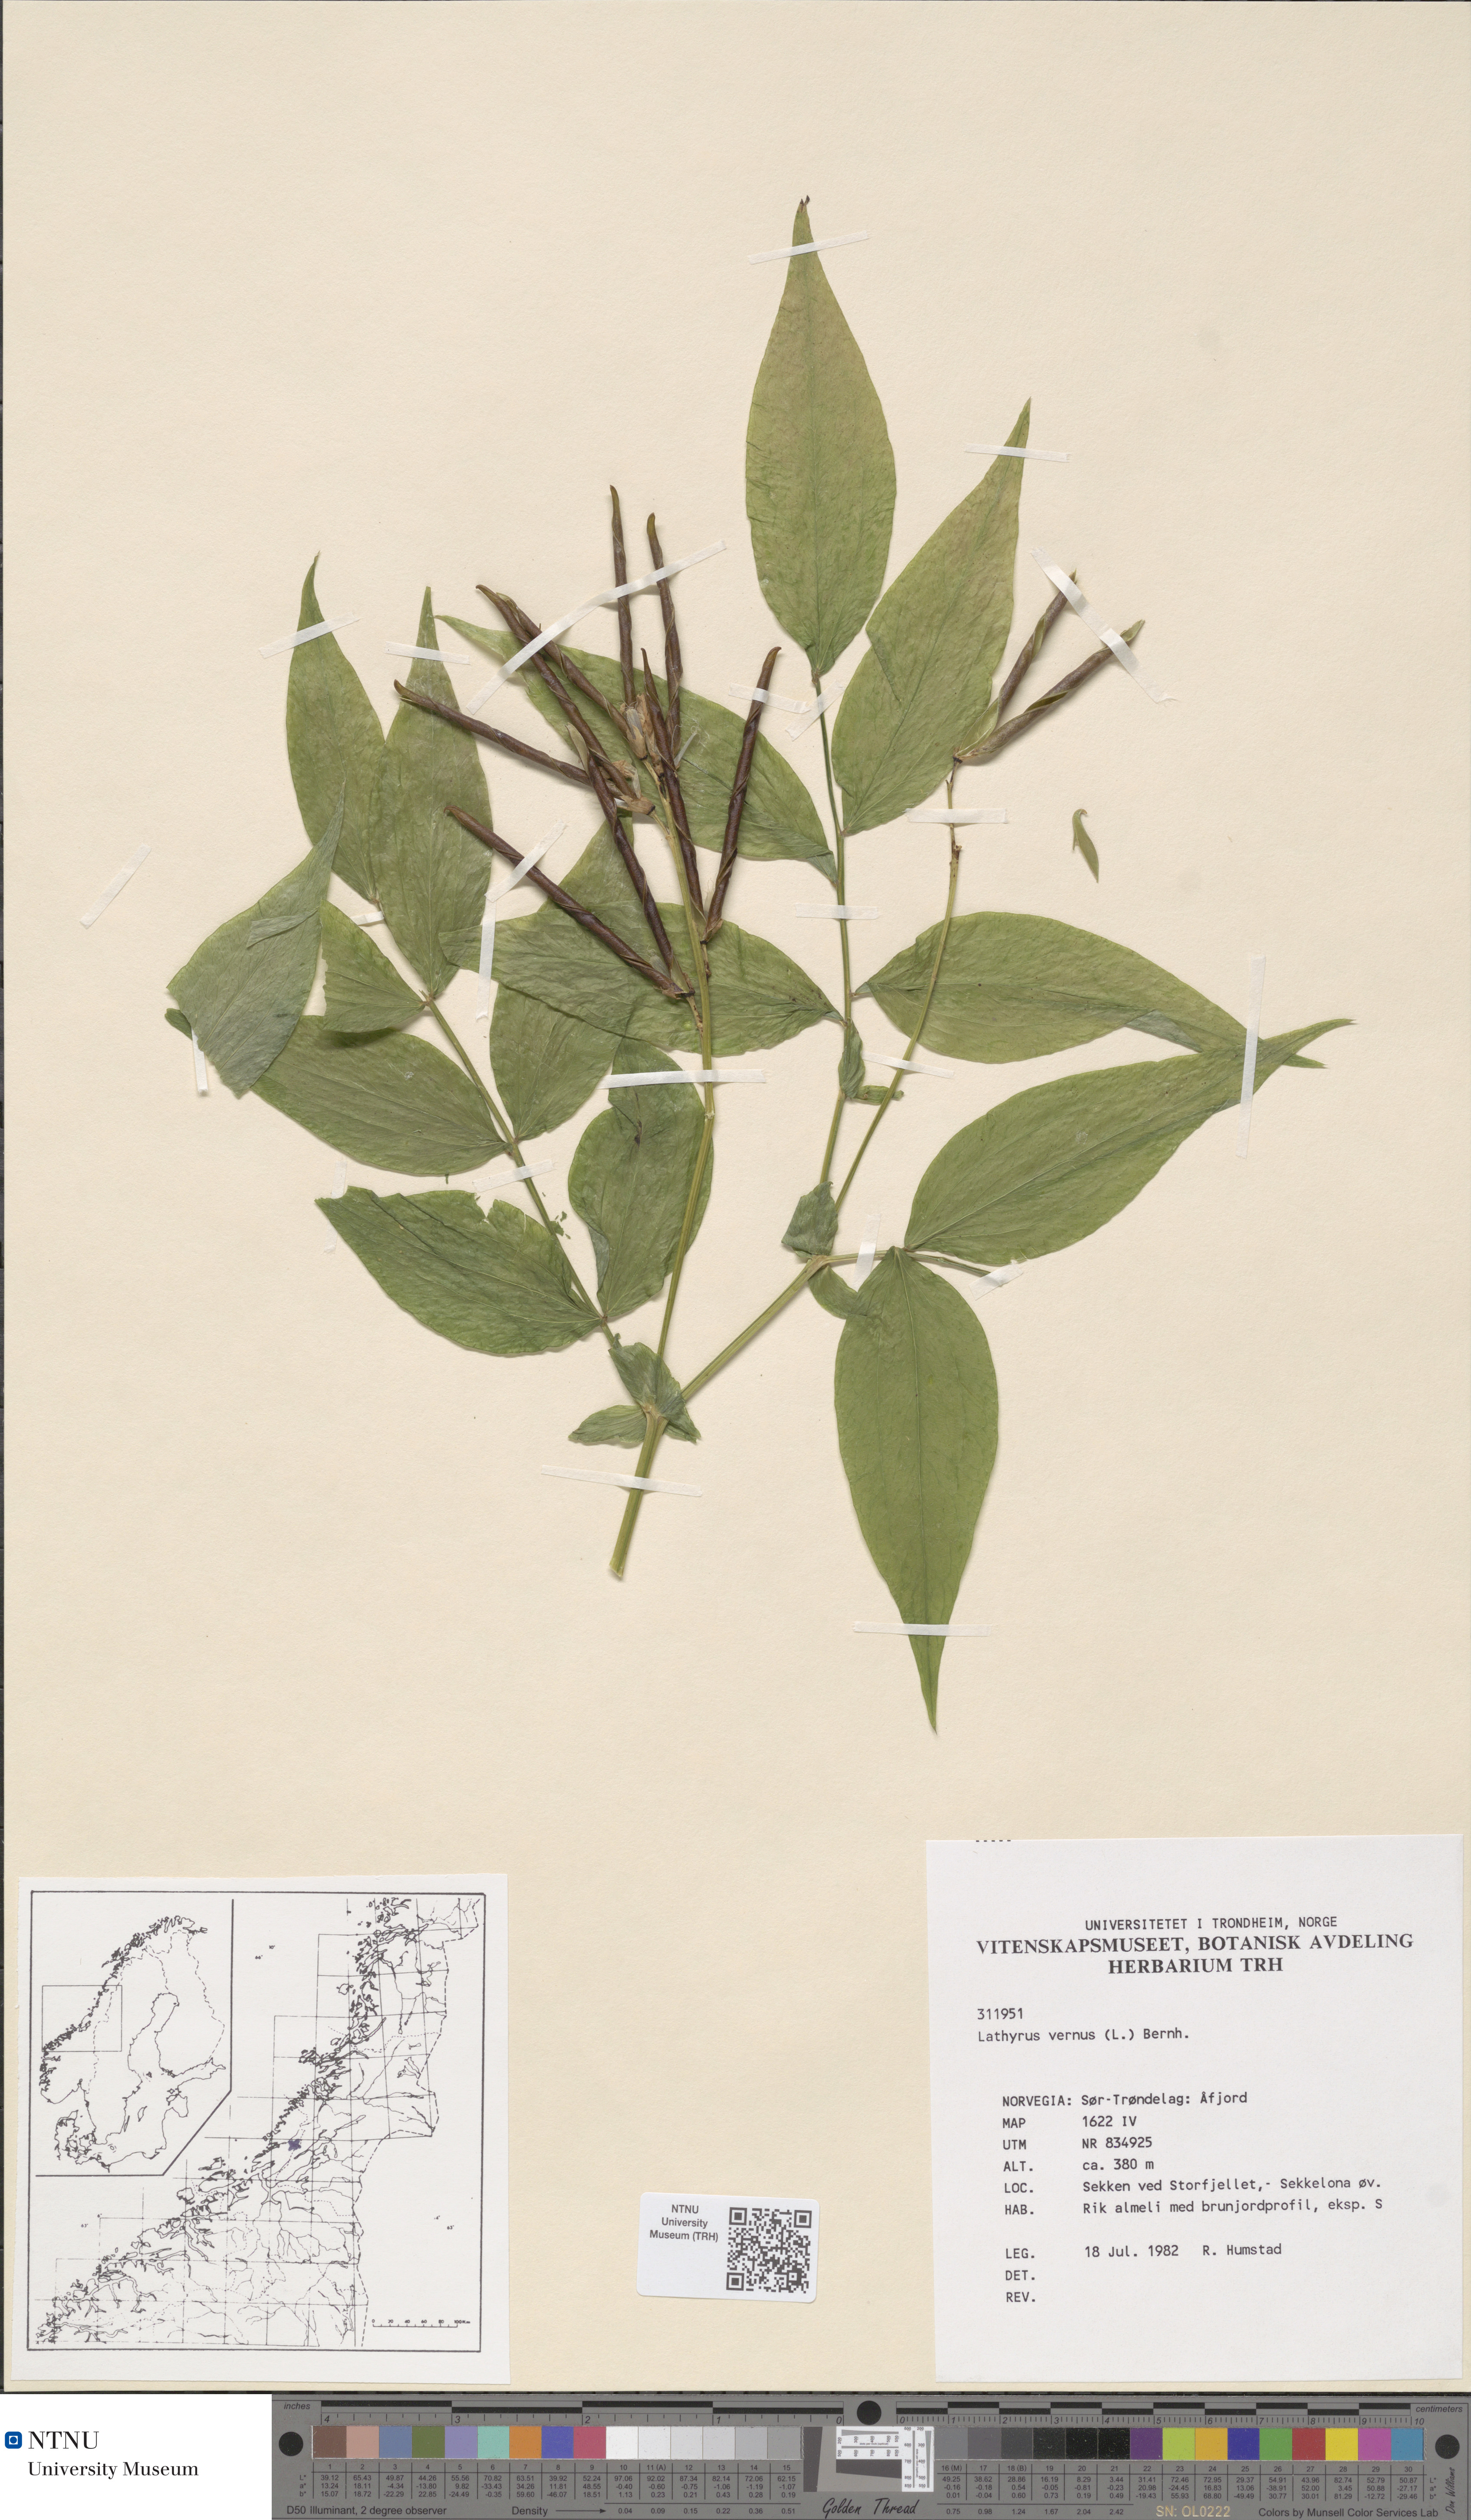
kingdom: Plantae
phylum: Tracheophyta
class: Magnoliopsida
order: Fabales
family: Fabaceae
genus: Lathyrus
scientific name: Lathyrus vernus
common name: Spring pea
